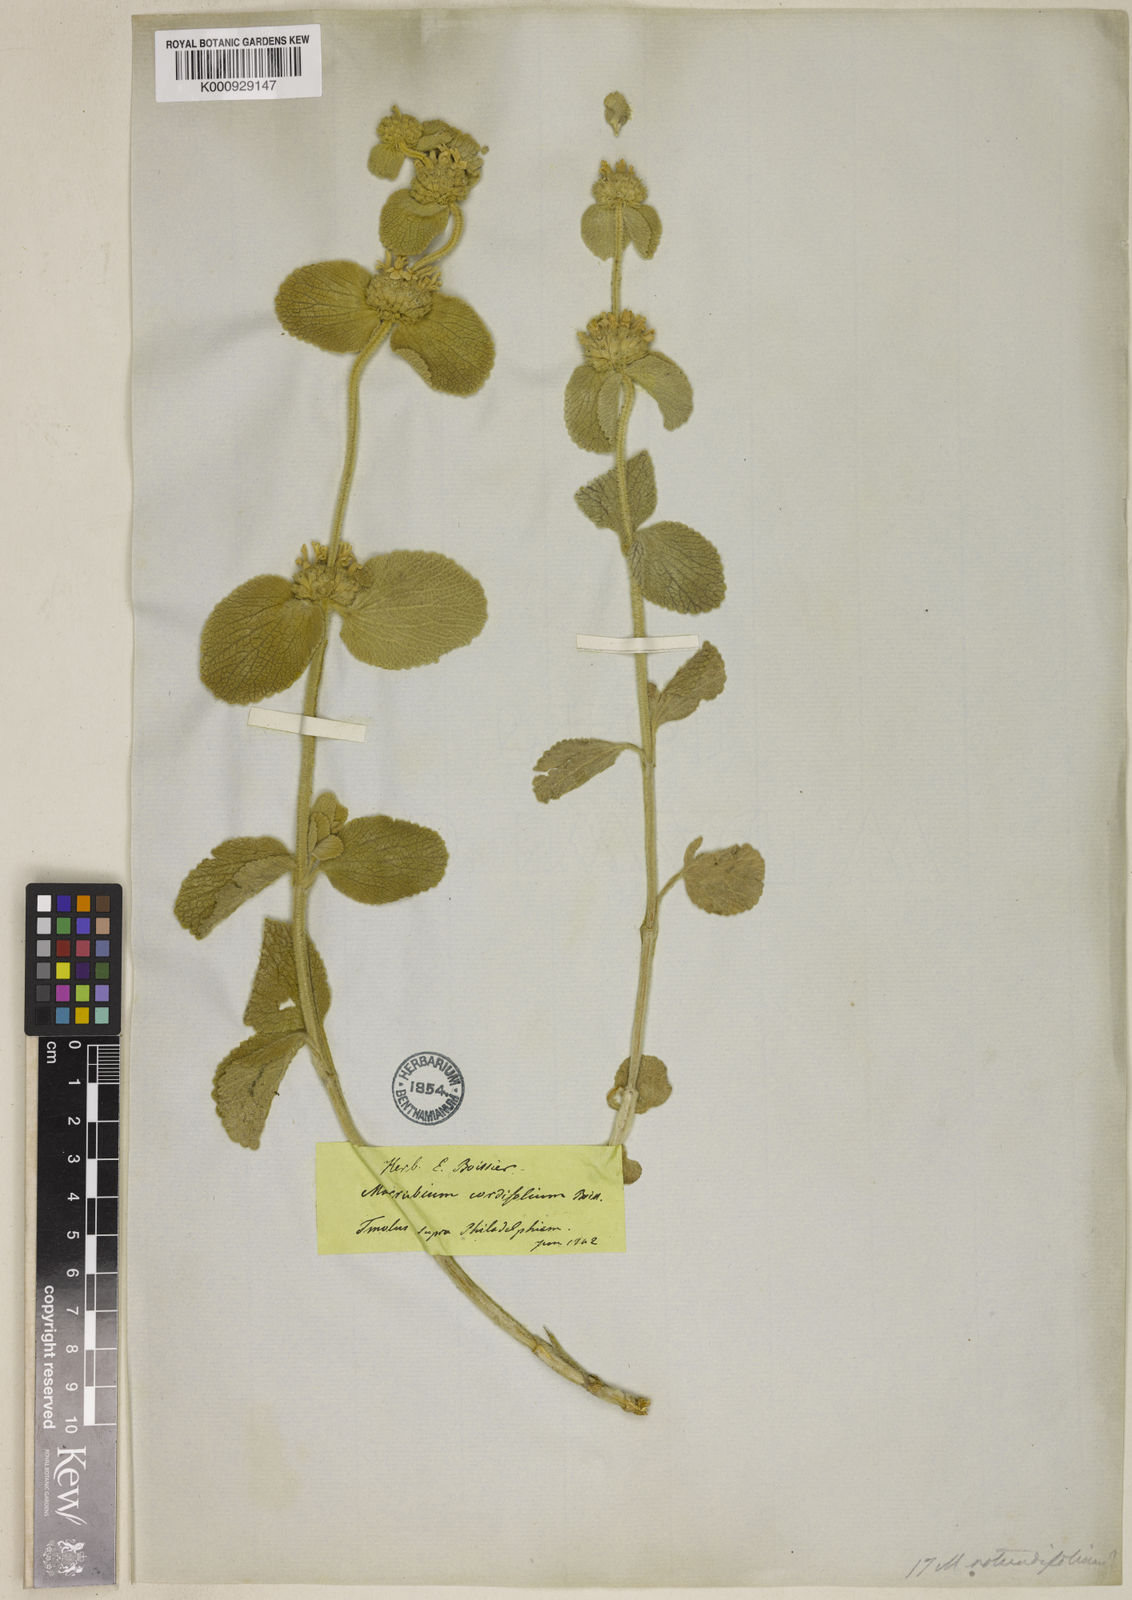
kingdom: Plantae
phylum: Tracheophyta
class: Magnoliopsida
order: Lamiales
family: Lamiaceae
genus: Marrubium
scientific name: Marrubium rotundifolium
